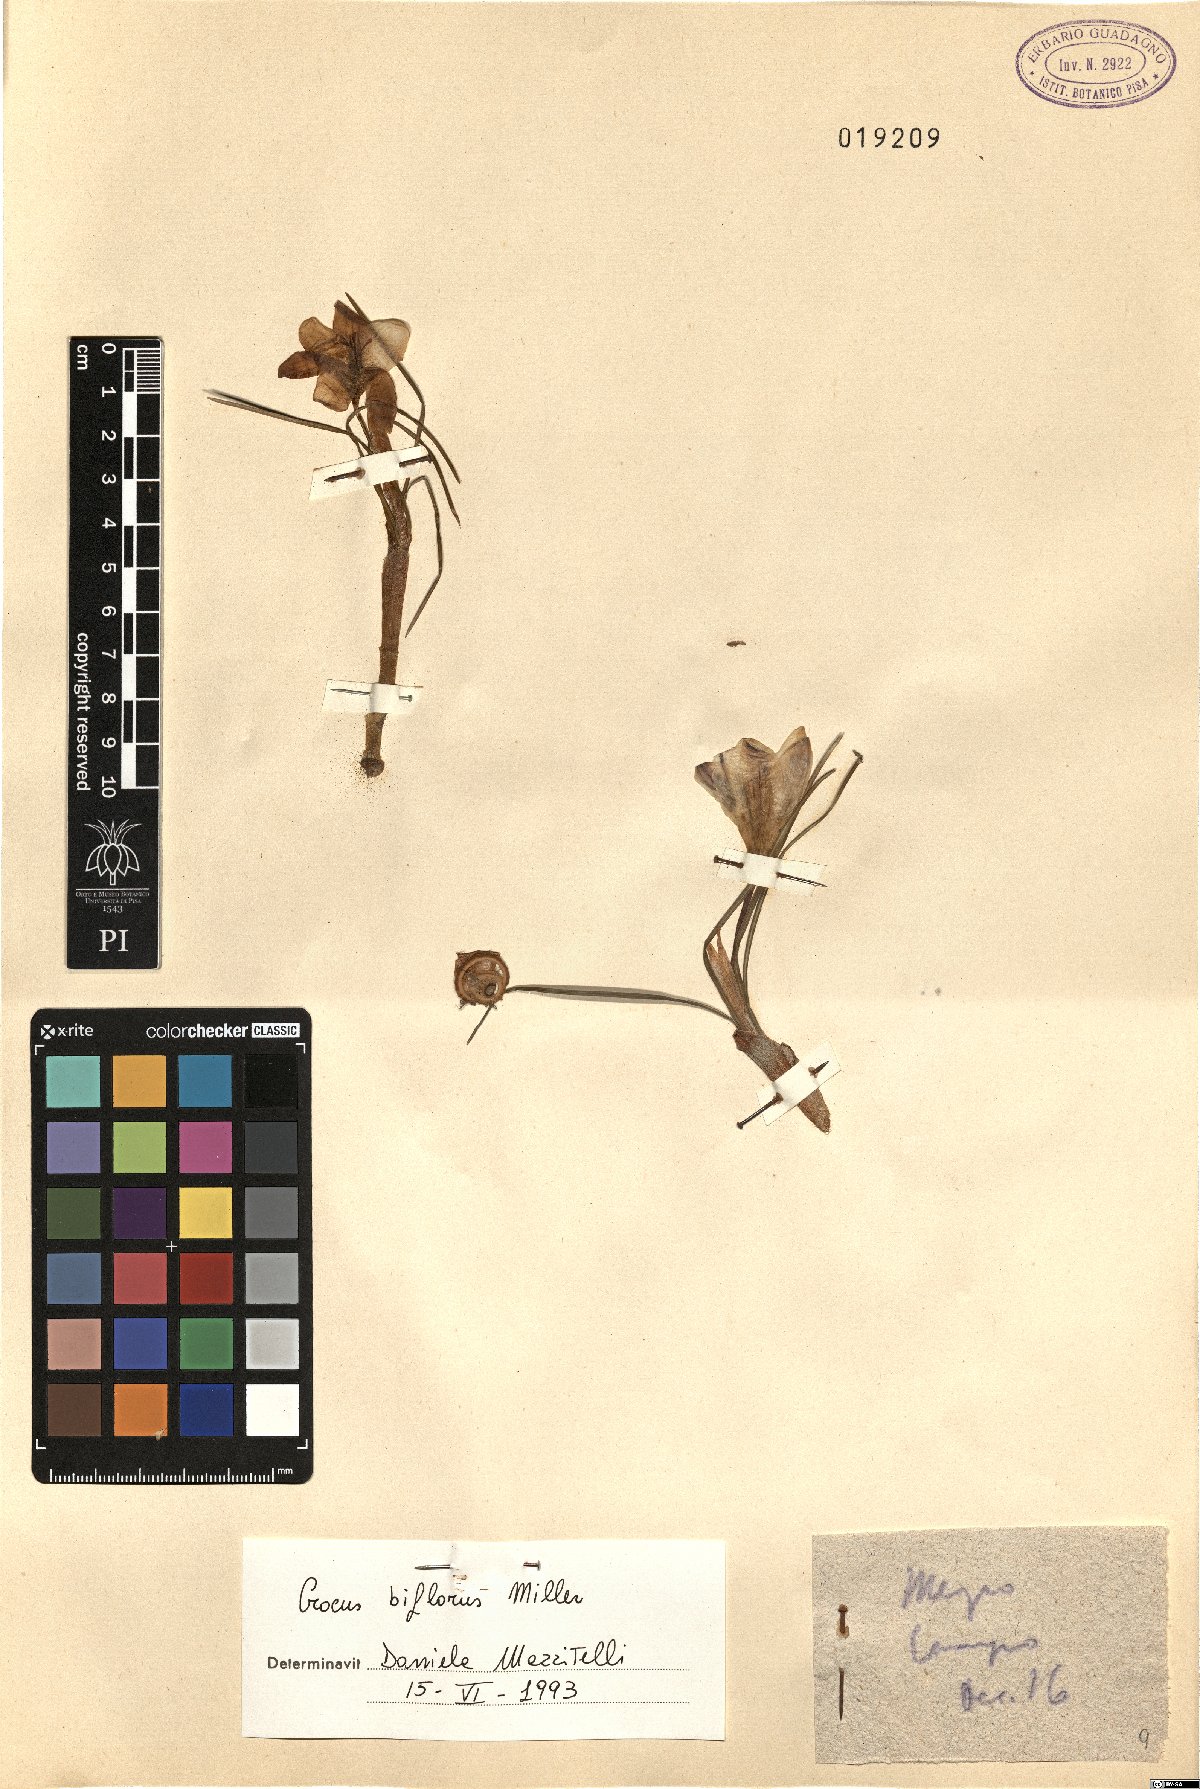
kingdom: Plantae
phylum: Tracheophyta
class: Liliopsida
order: Asparagales
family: Iridaceae
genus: Crocus
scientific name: Crocus biflorus
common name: Silvery crocus
